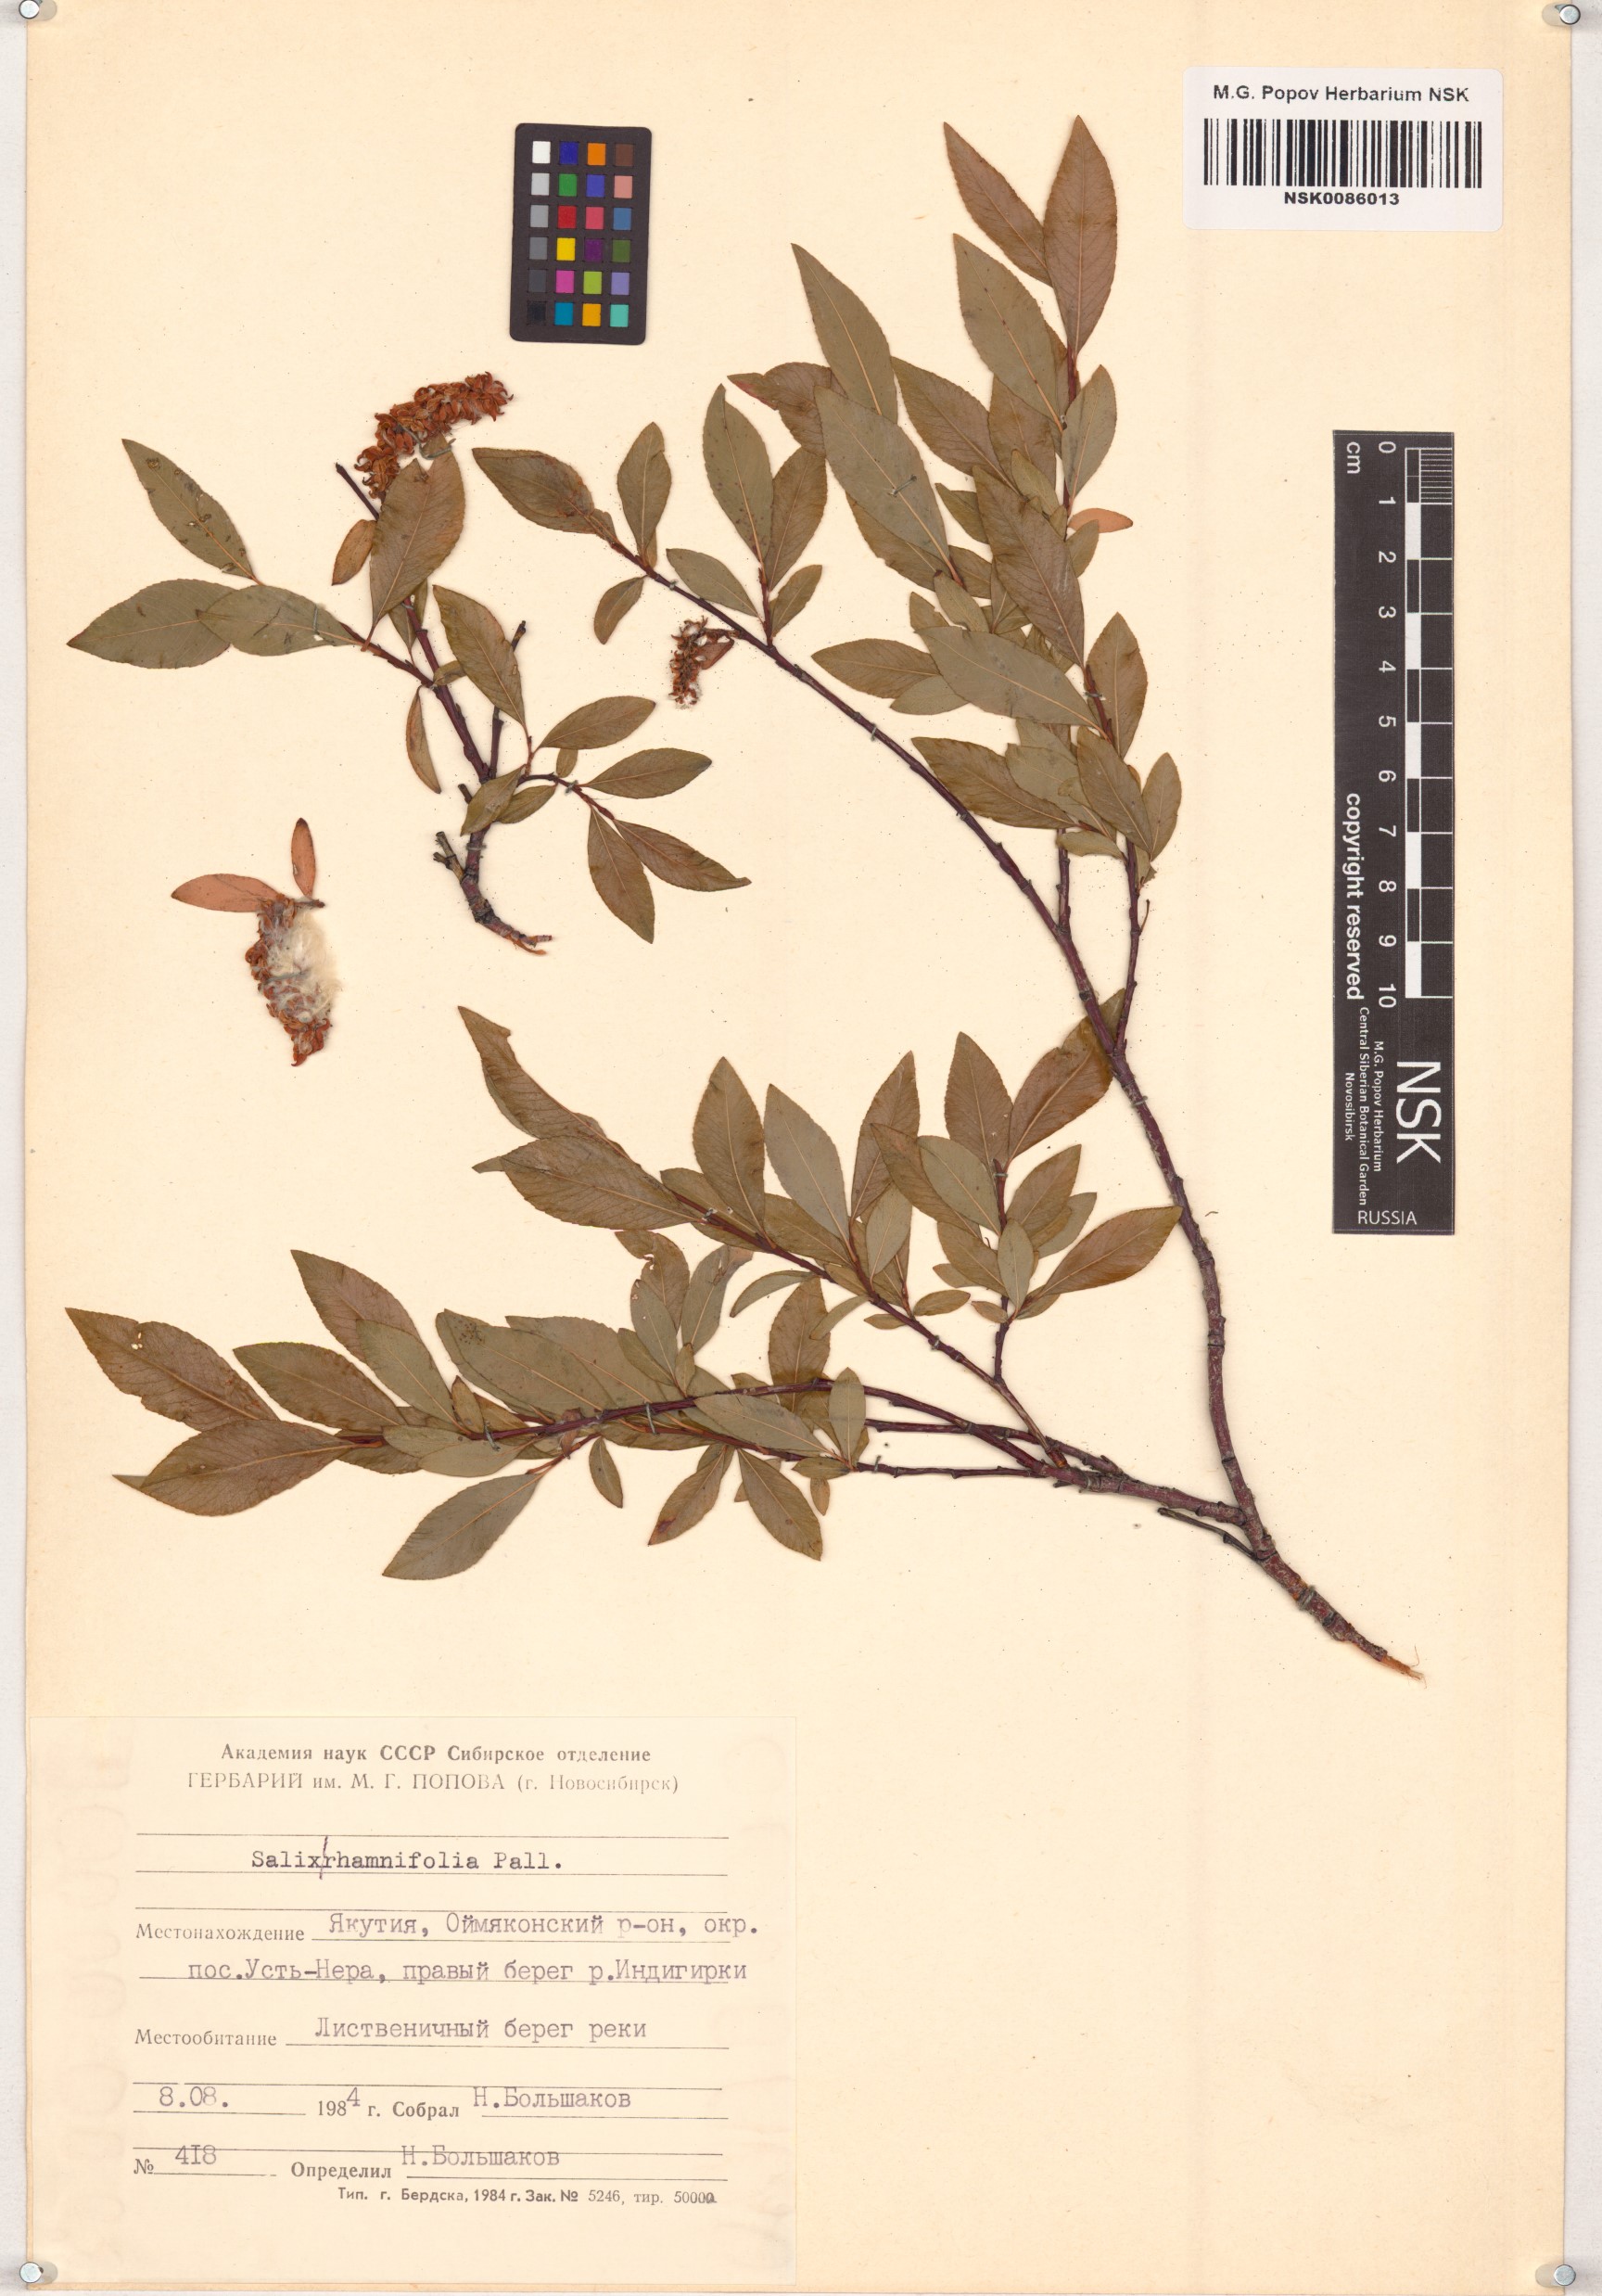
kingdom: Plantae
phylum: Tracheophyta
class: Magnoliopsida
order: Malpighiales
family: Salicaceae
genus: Salix
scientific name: Salix rhamnifolia
